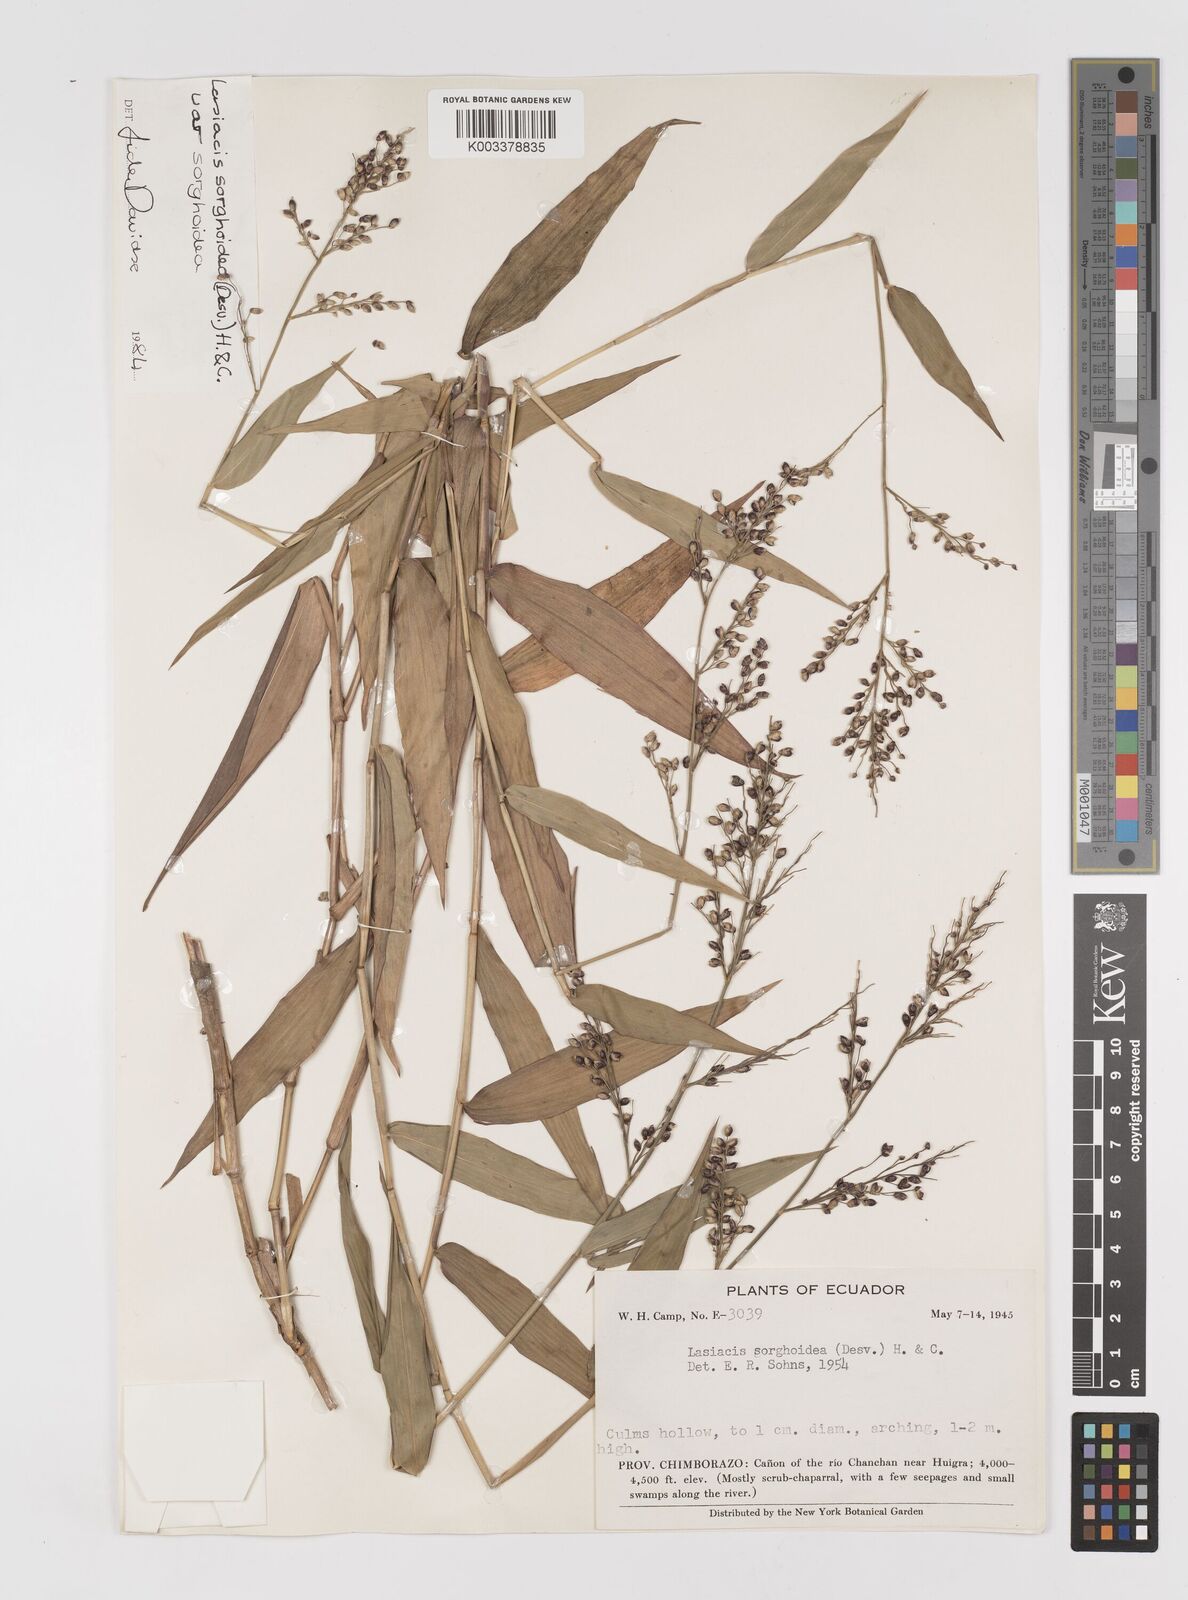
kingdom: Plantae
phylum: Tracheophyta
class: Liliopsida
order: Poales
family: Poaceae
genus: Lasiacis
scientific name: Lasiacis maculata
